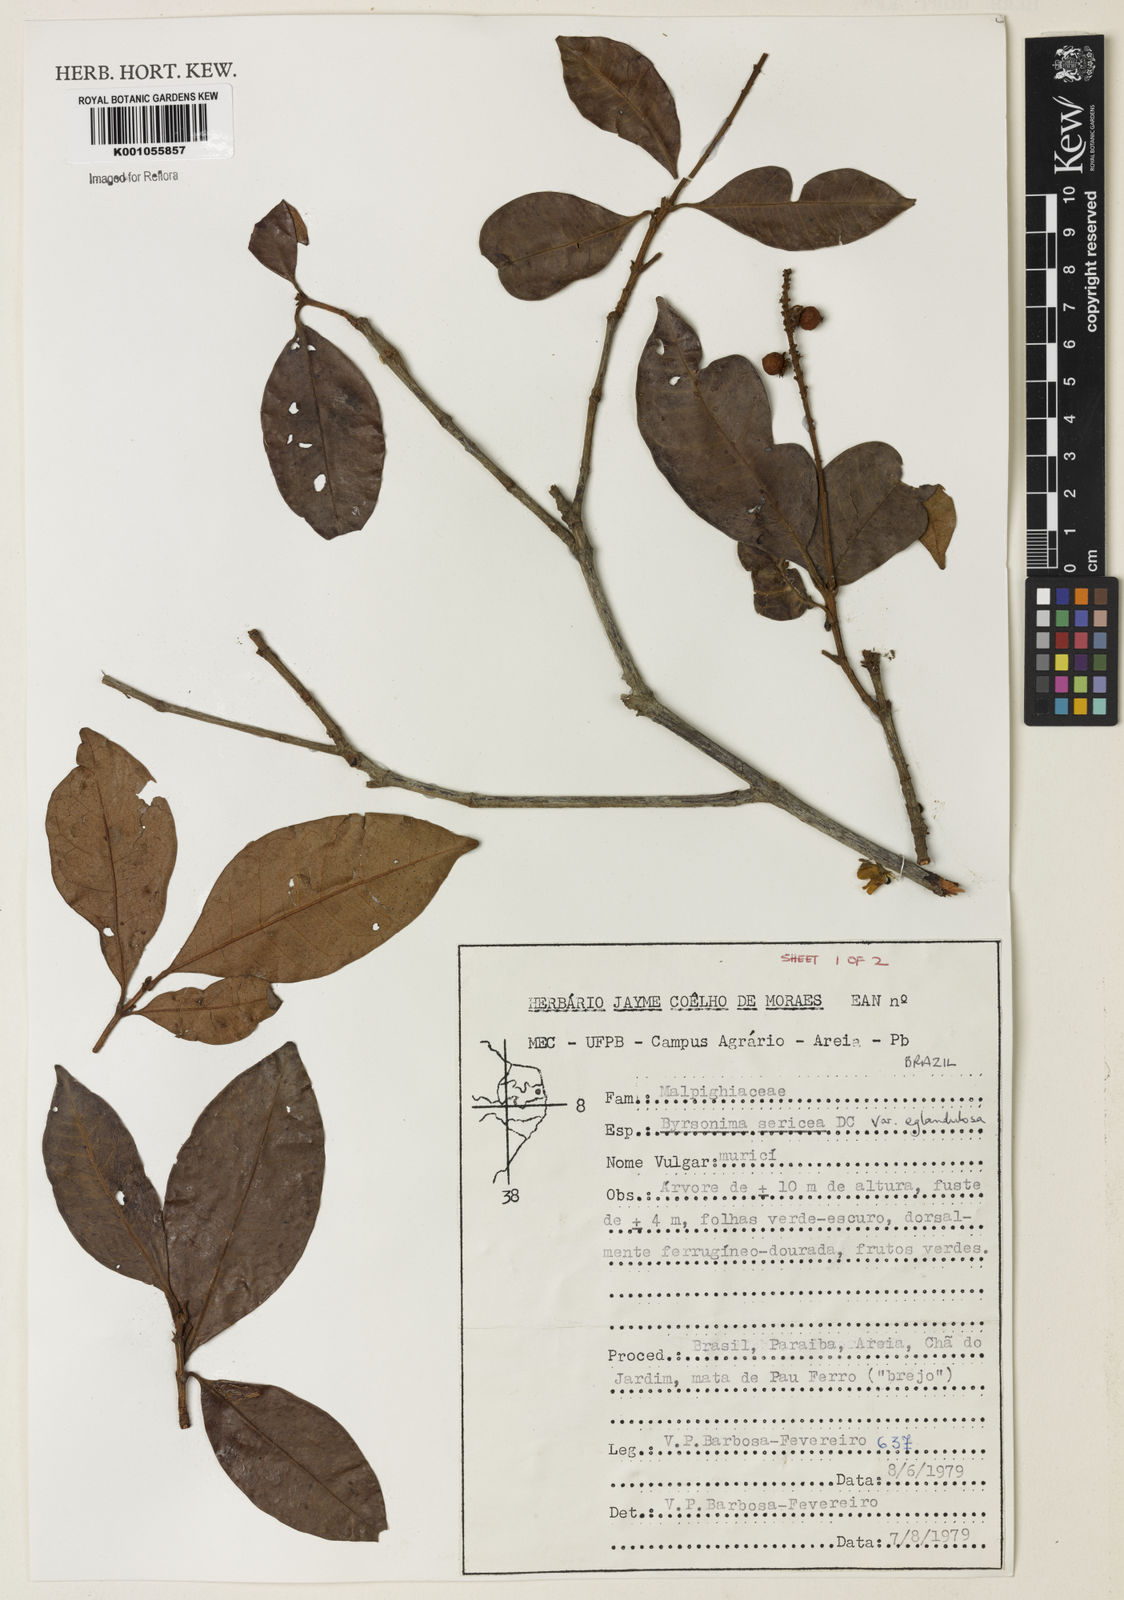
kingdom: Plantae
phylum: Tracheophyta
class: Magnoliopsida
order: Malpighiales
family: Malpighiaceae
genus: Byrsonima
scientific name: Byrsonima sericea
